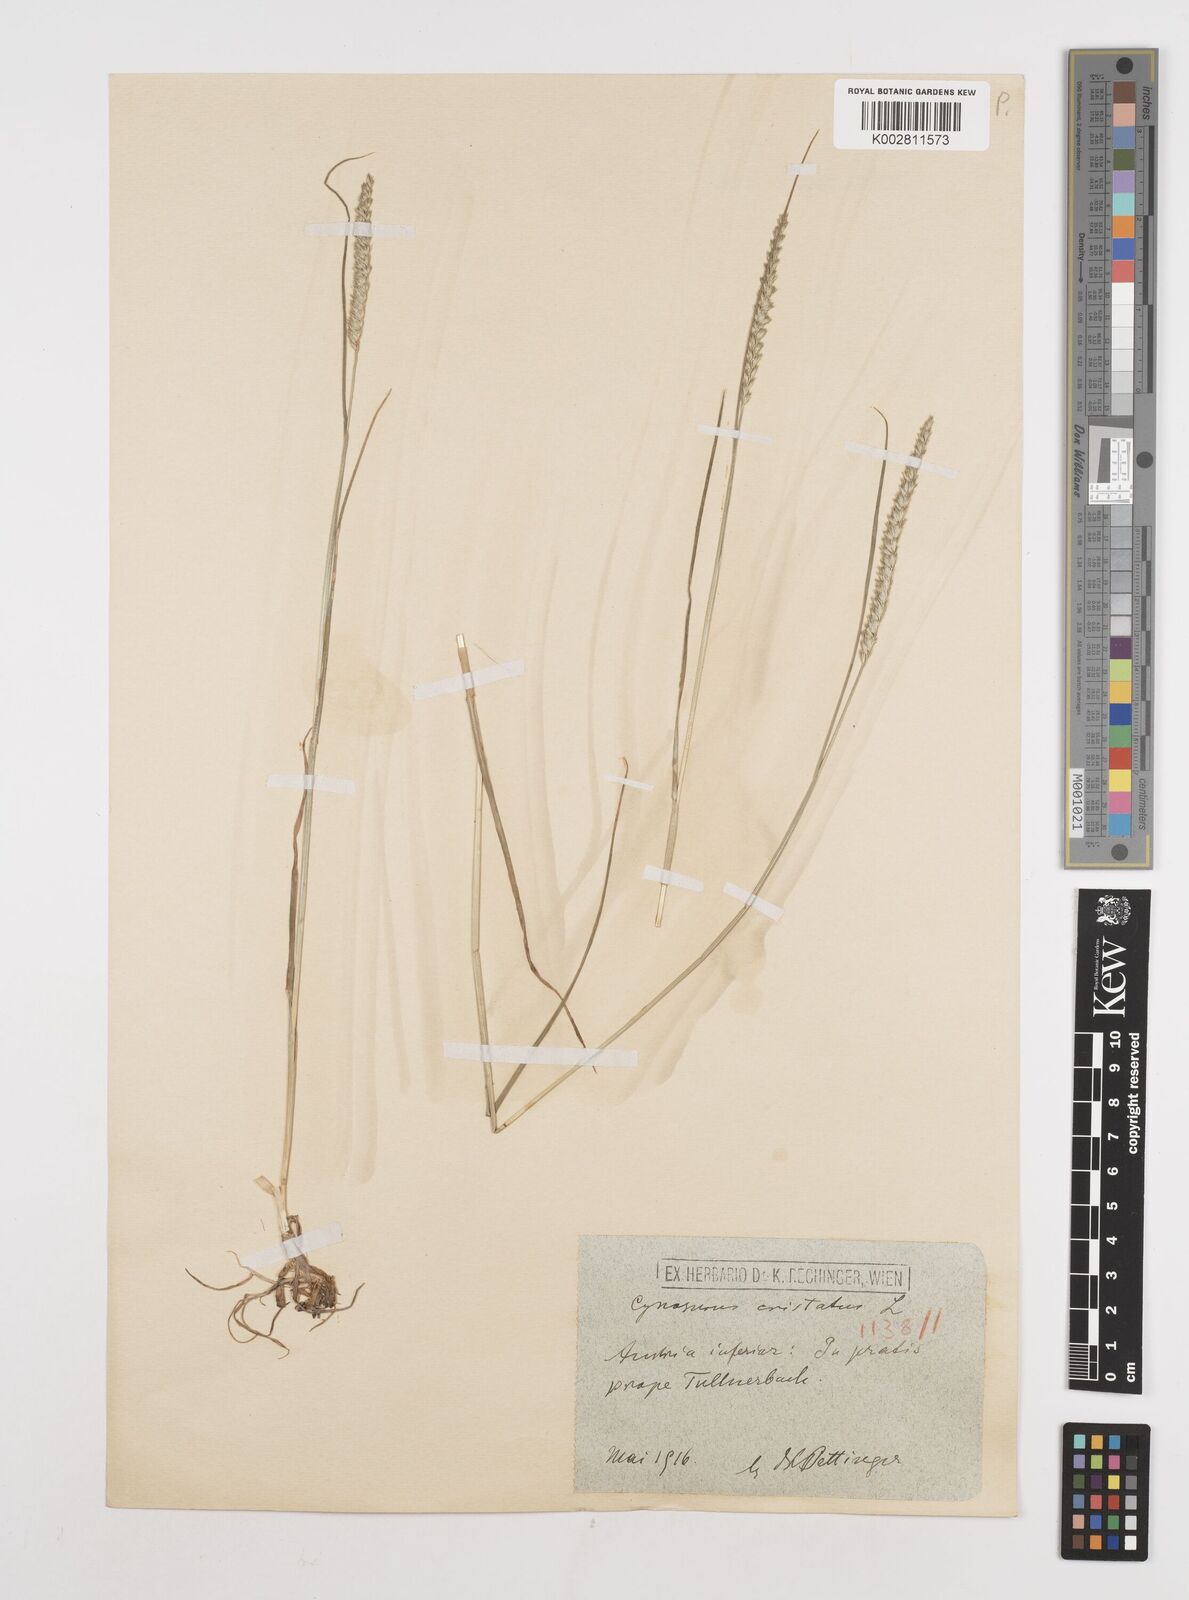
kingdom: Plantae
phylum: Tracheophyta
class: Liliopsida
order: Poales
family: Poaceae
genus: Cynosurus
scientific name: Cynosurus cristatus
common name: Crested dog's-tail
